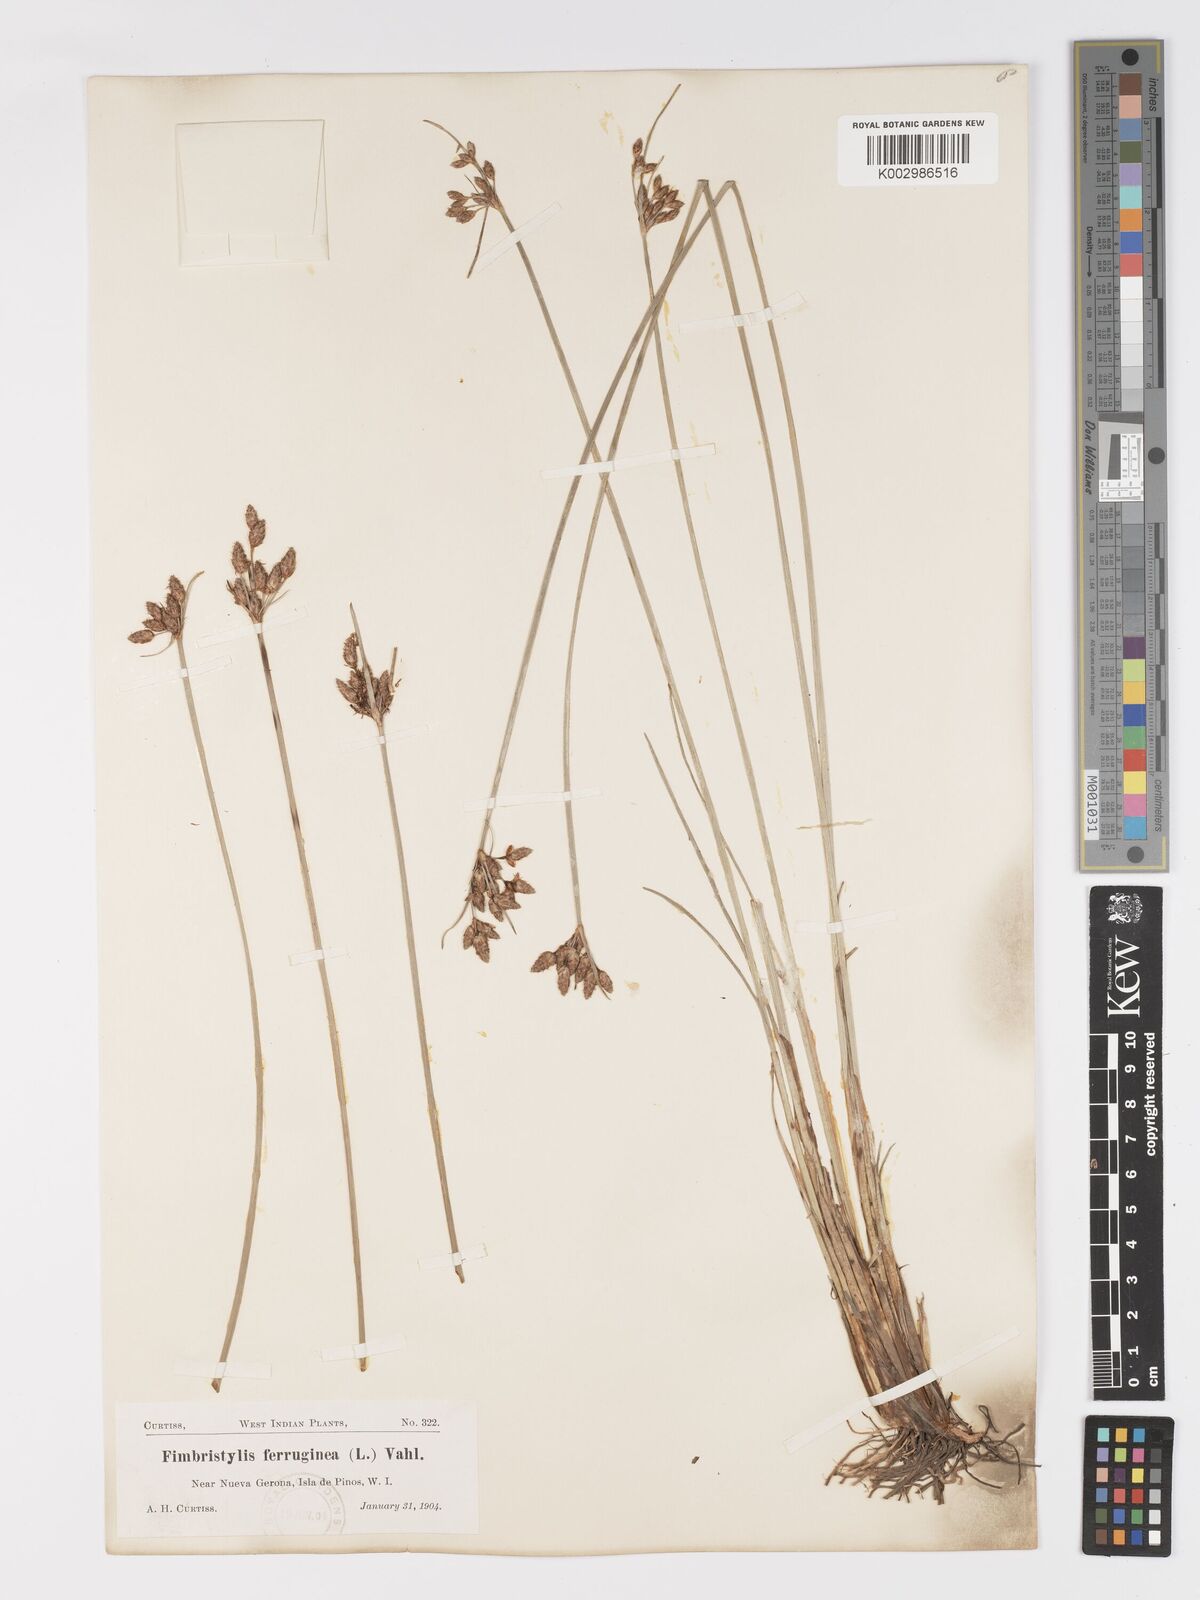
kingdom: Plantae
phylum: Tracheophyta
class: Liliopsida
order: Poales
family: Cyperaceae
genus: Fimbristylis
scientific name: Fimbristylis ferruginea
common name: West indian fimbry
